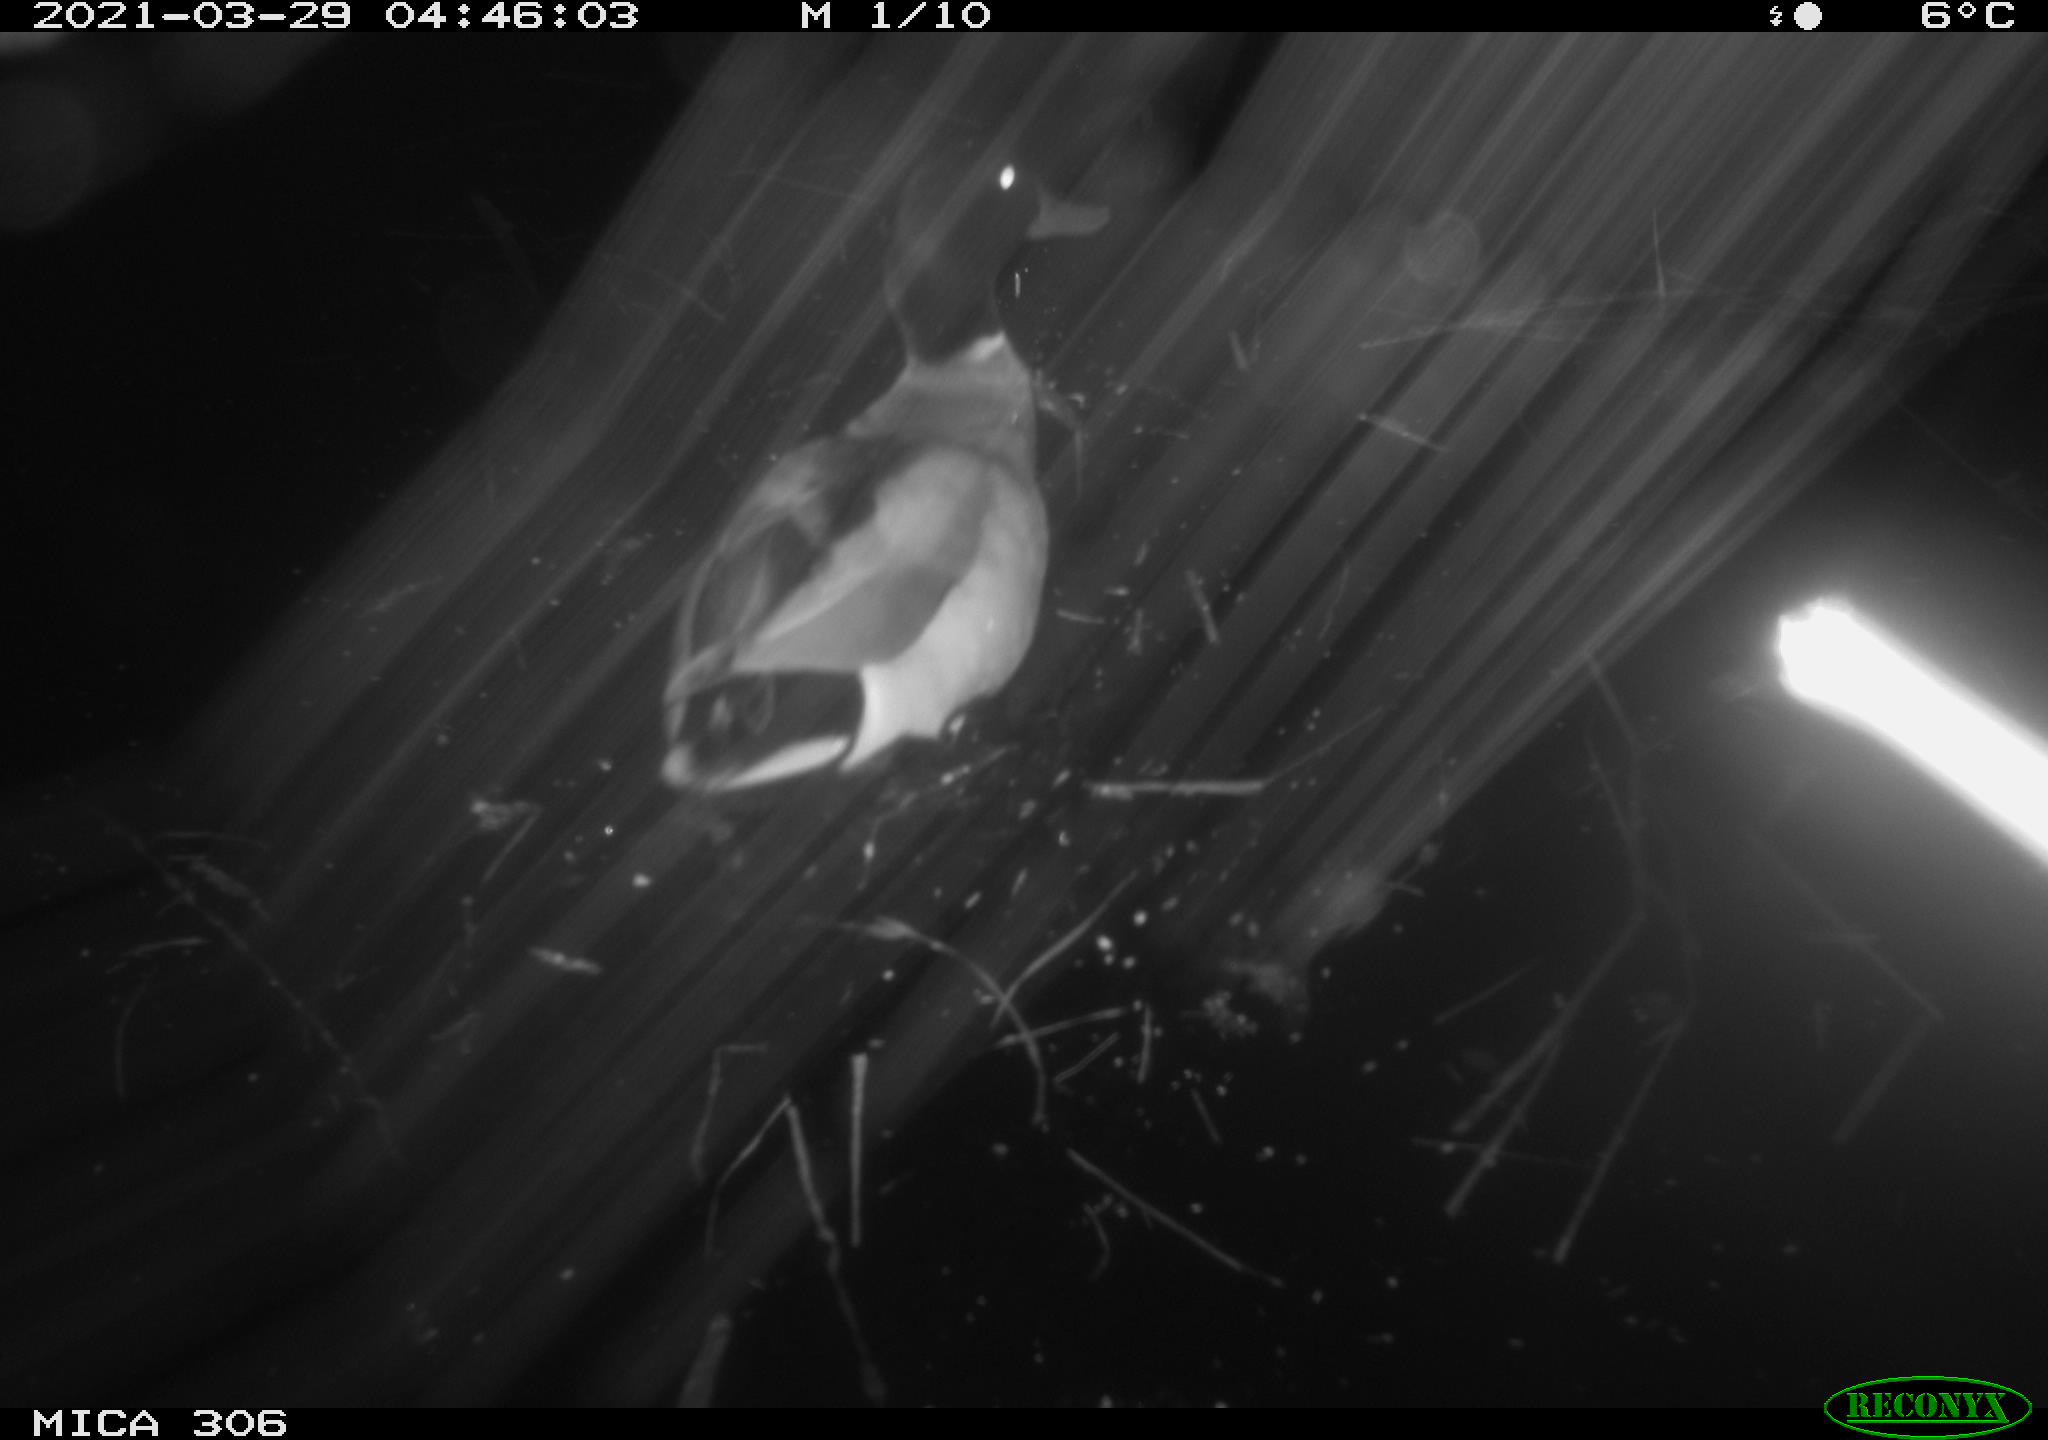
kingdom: Animalia
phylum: Chordata
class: Aves
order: Anseriformes
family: Anatidae
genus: Anas
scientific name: Anas platyrhynchos
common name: Mallard
